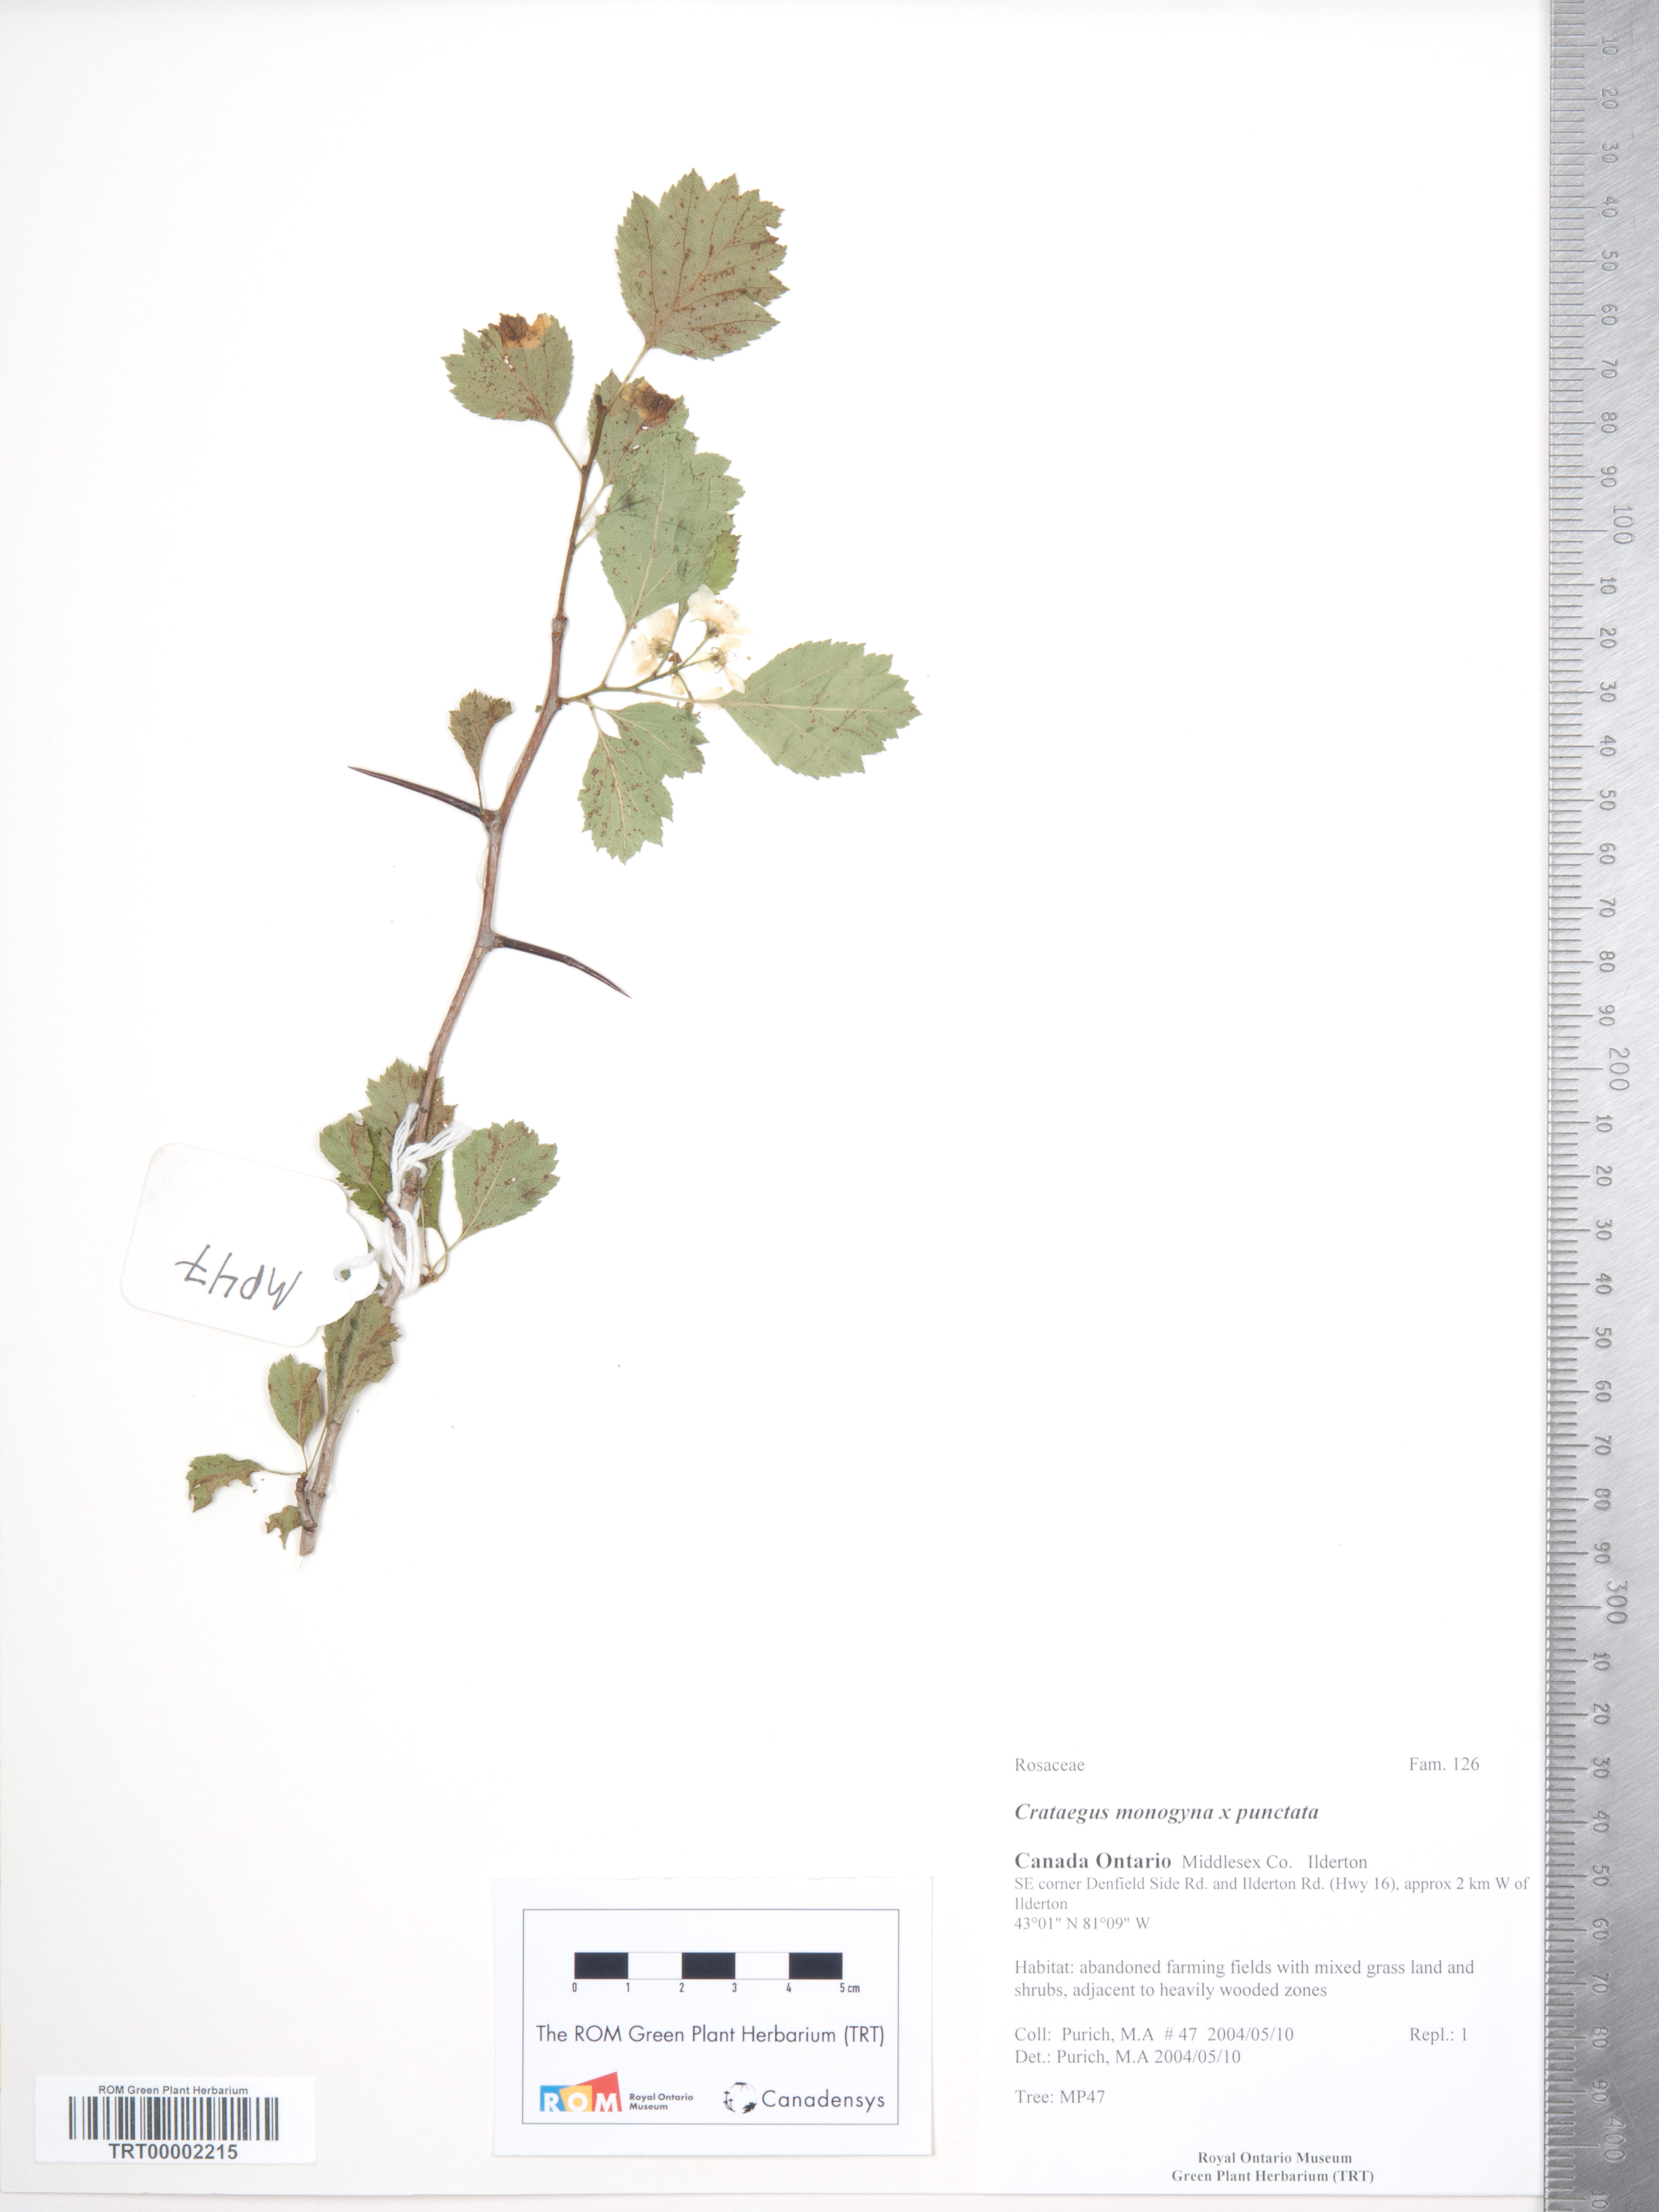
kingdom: Plantae
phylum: Tracheophyta
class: Magnoliopsida
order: Rosales
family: Rosaceae
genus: Crataegus
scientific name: Crataegus dodgei
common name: Dodge's hawthorn
